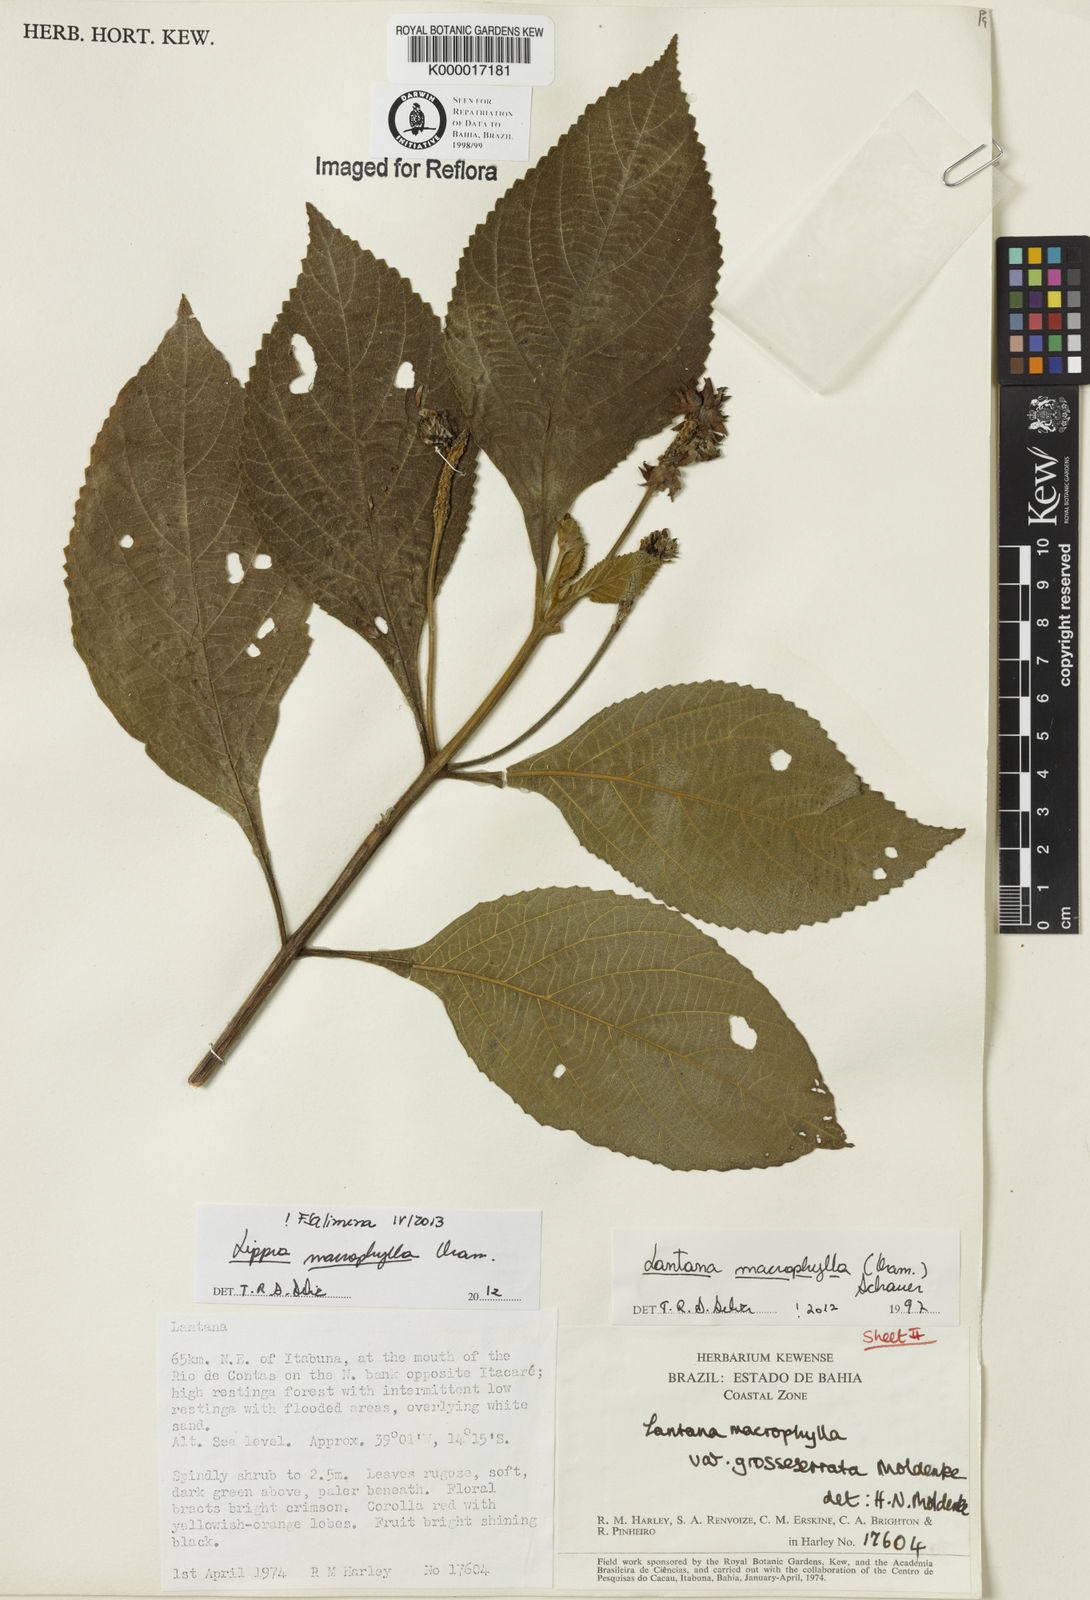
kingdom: Plantae
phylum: Tracheophyta
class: Magnoliopsida
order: Lamiales
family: Verbenaceae
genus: Lippia
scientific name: Lippia macrophylla
